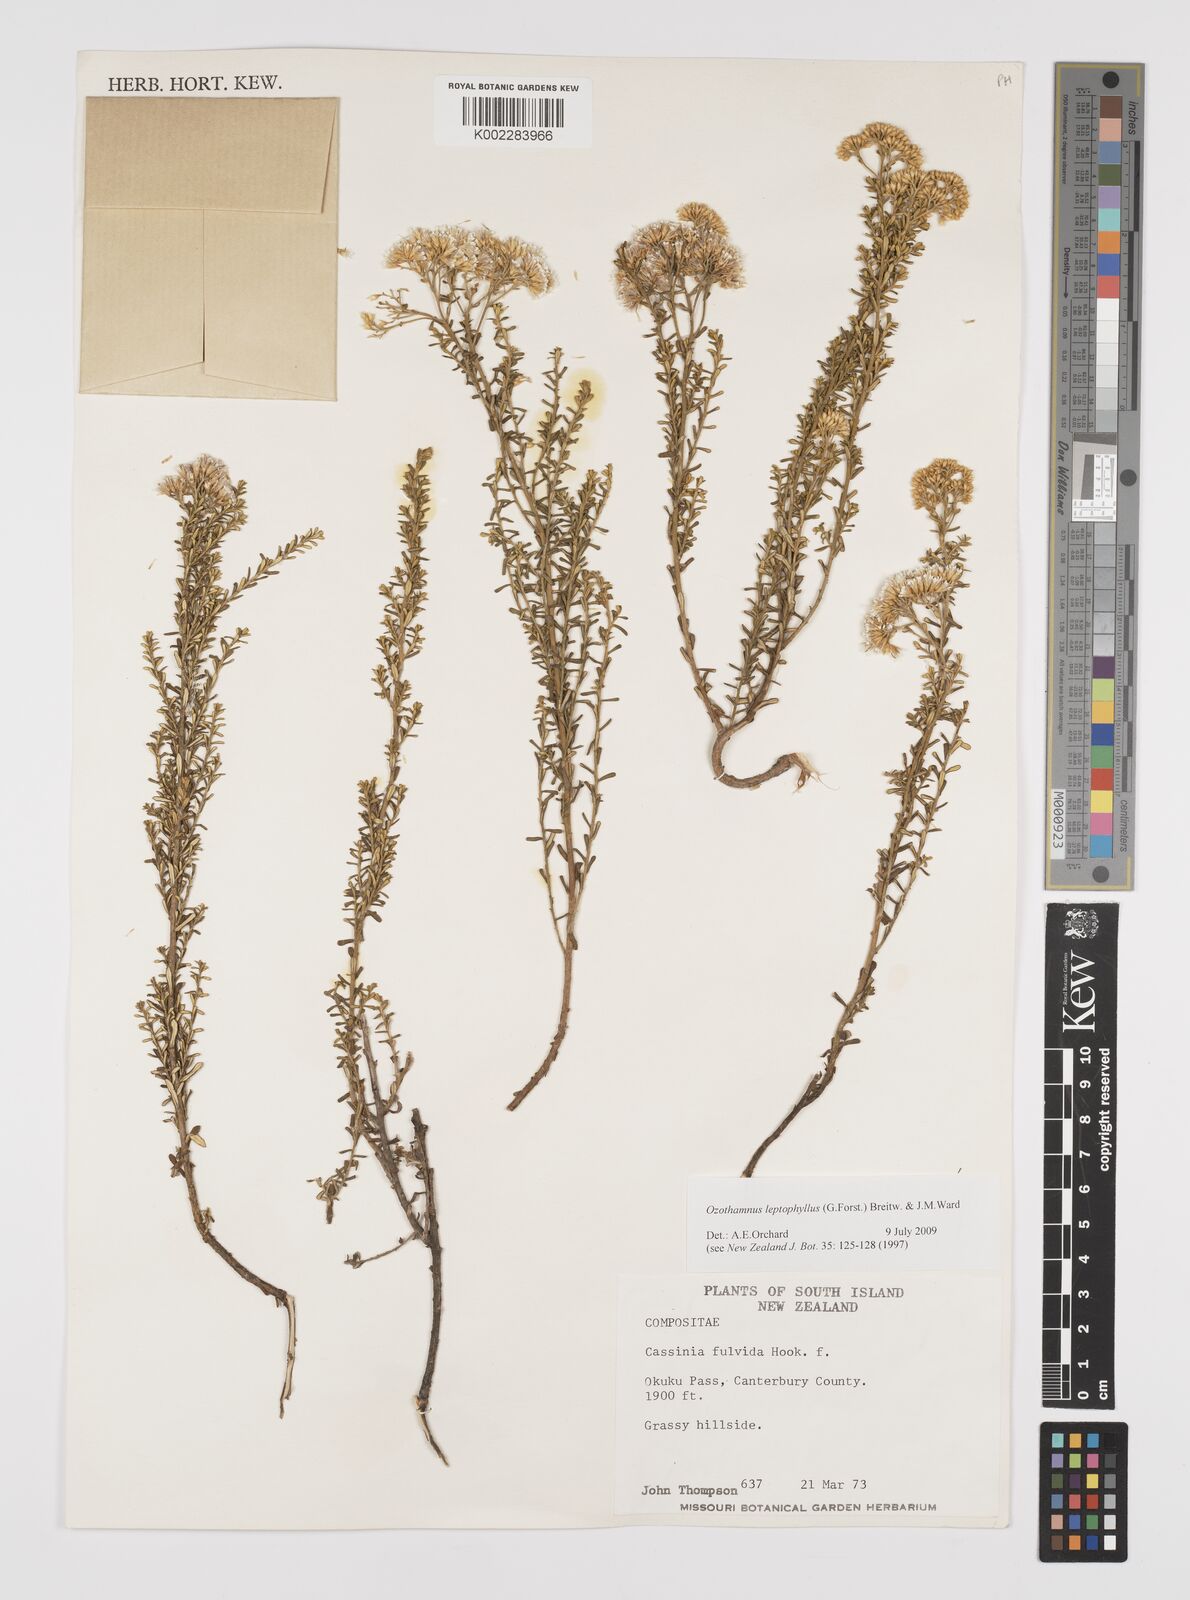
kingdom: Plantae
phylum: Tracheophyta
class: Magnoliopsida
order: Asterales
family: Asteraceae
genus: Ozothamnus
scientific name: Ozothamnus leptophyllus
